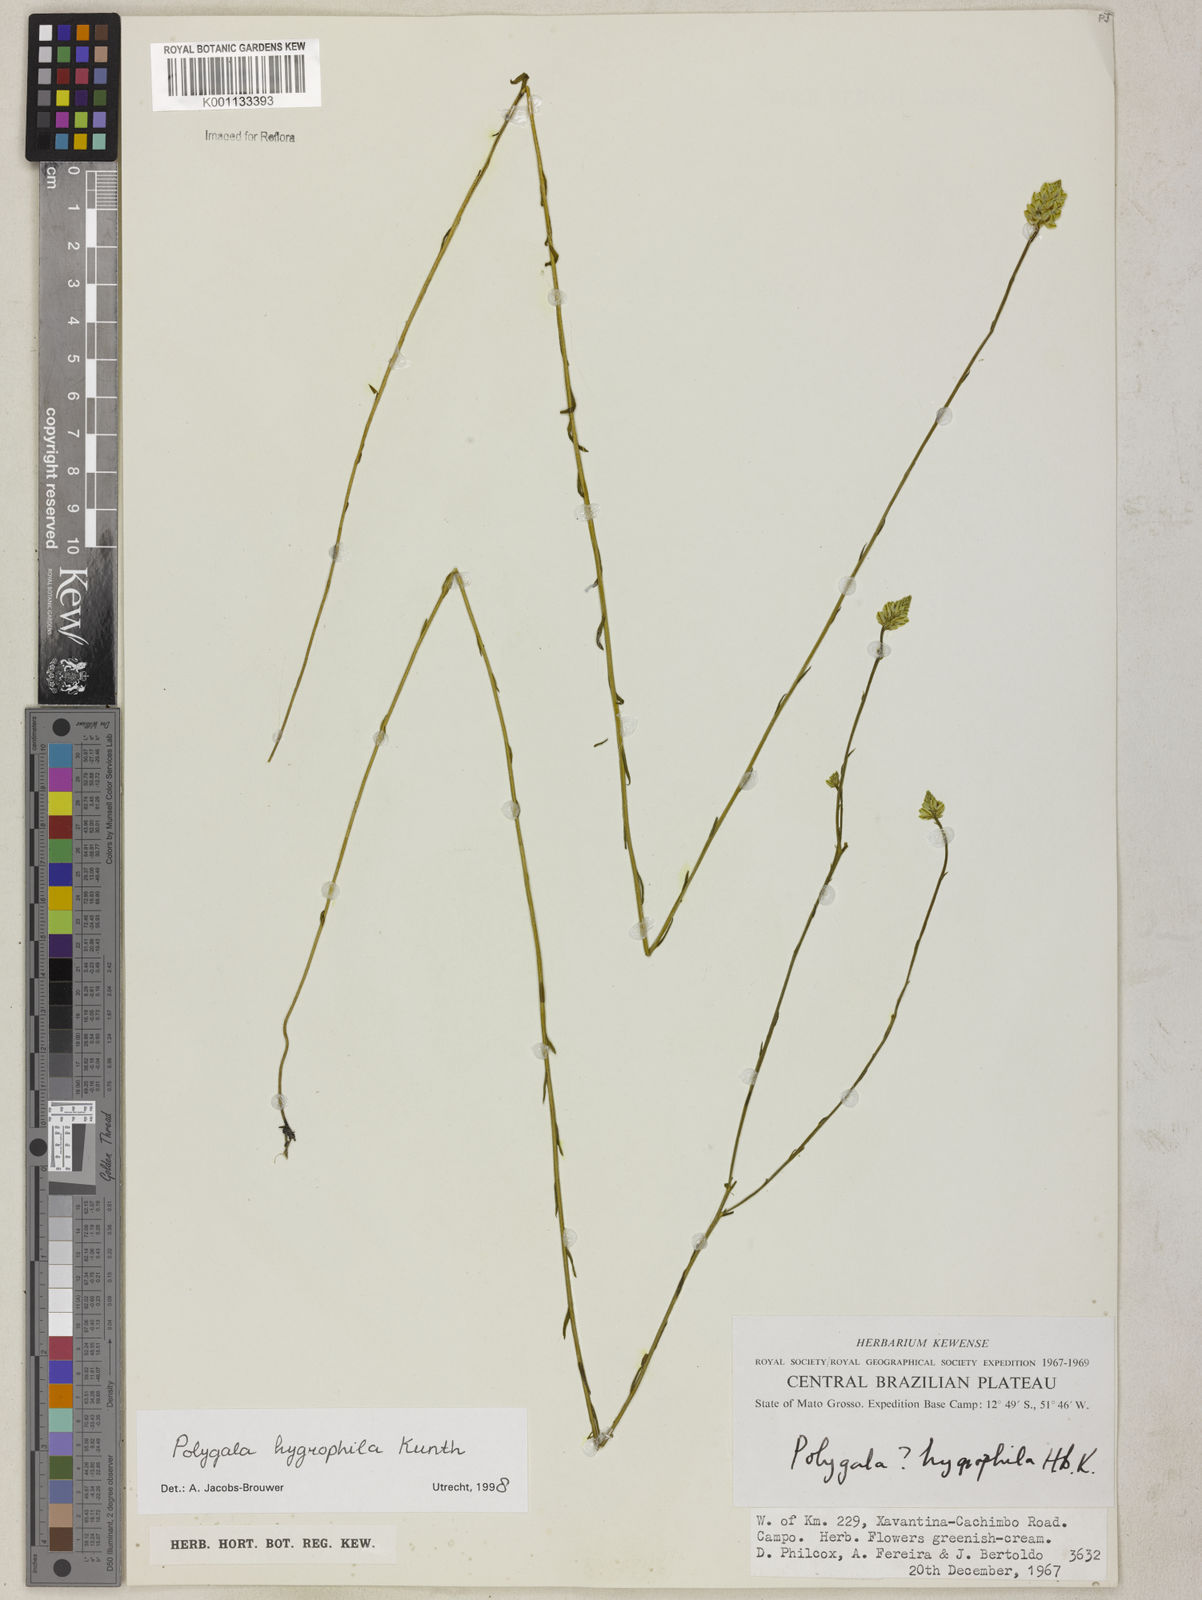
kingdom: Plantae
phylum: Tracheophyta
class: Magnoliopsida
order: Fabales
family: Polygalaceae
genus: Polygala
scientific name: Polygala hygrophila
